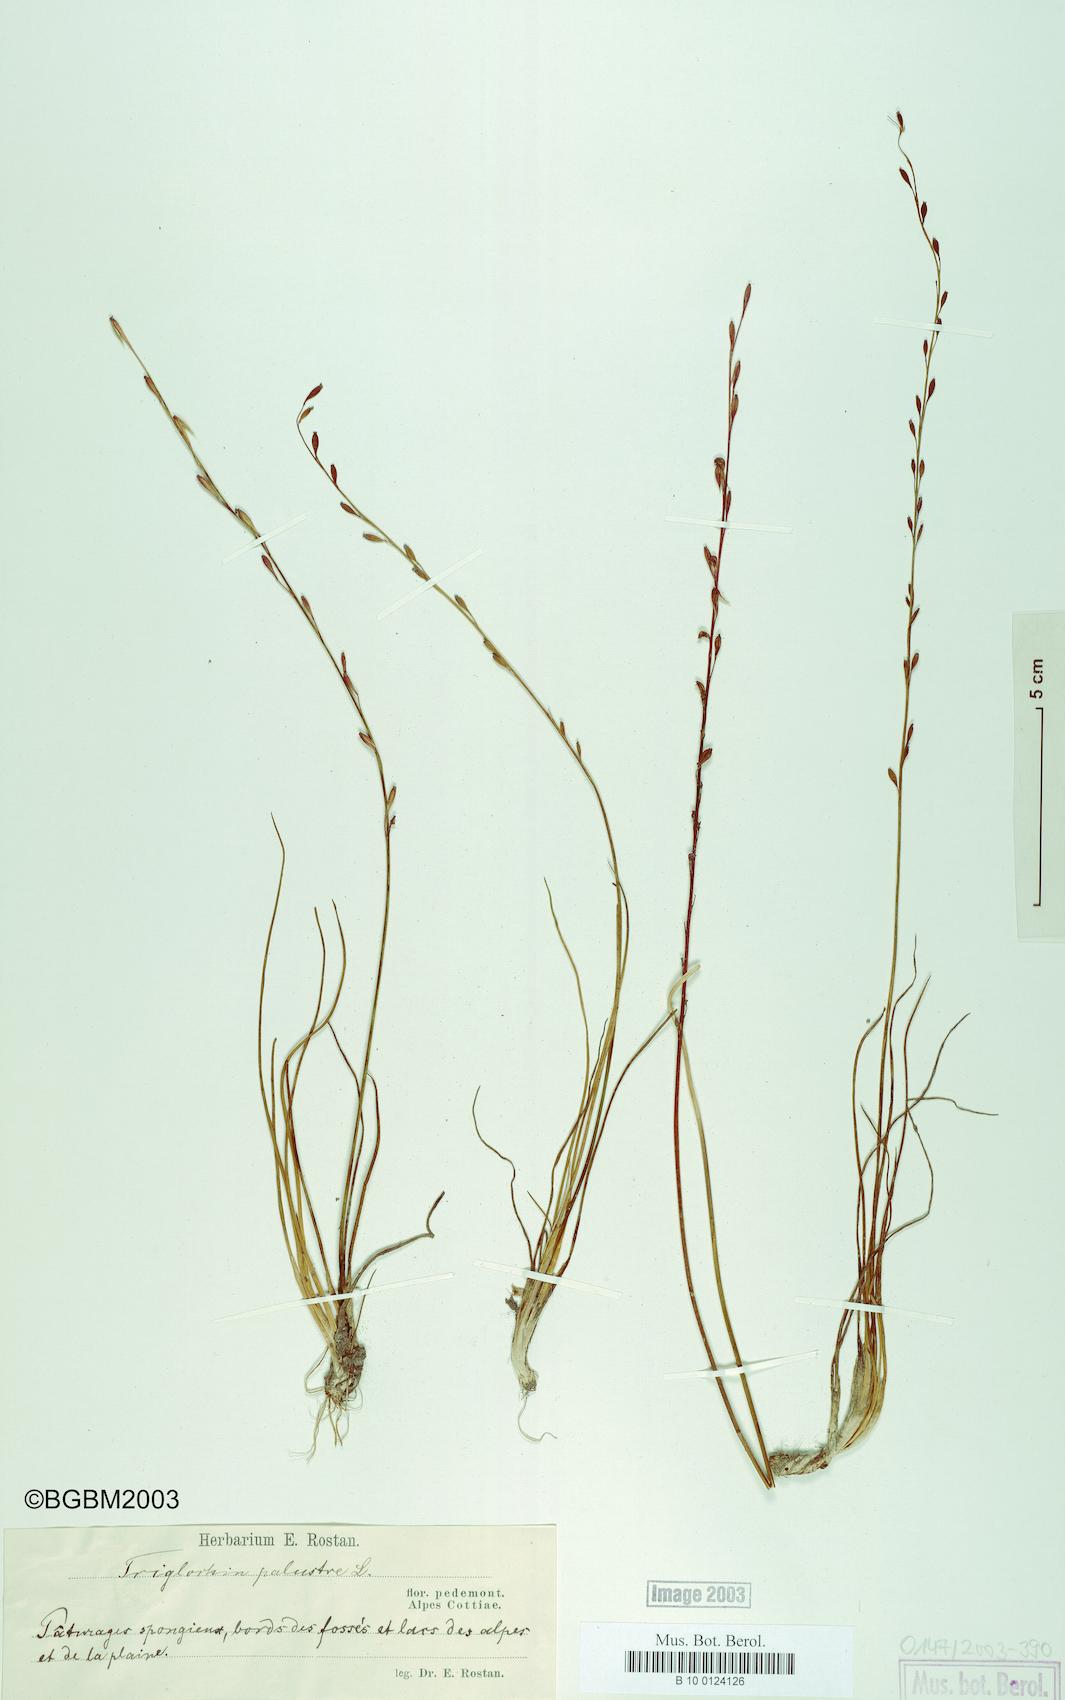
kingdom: Plantae
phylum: Tracheophyta
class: Liliopsida
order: Alismatales
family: Juncaginaceae
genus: Triglochin
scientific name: Triglochin palustris
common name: Marsh arrowgrass
